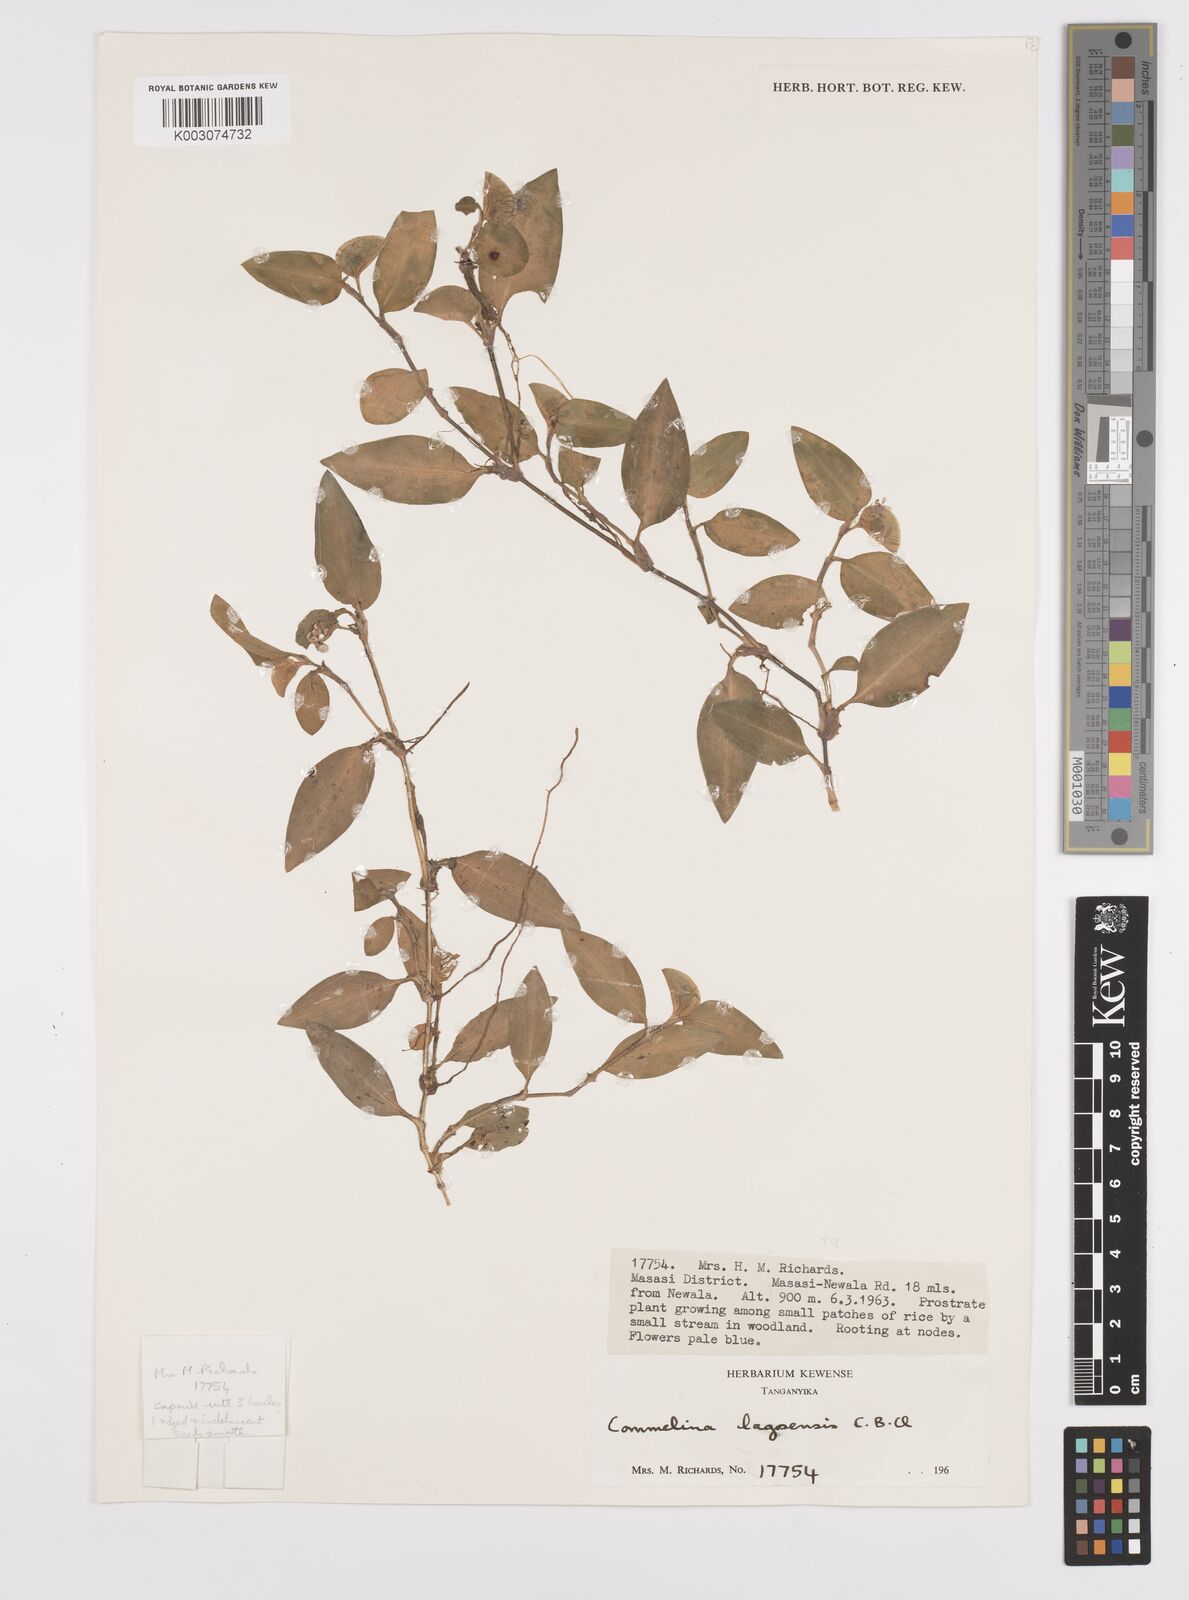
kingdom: Plantae
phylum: Tracheophyta
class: Liliopsida
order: Commelinales
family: Commelinaceae
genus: Commelina
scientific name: Commelina bracteosa
